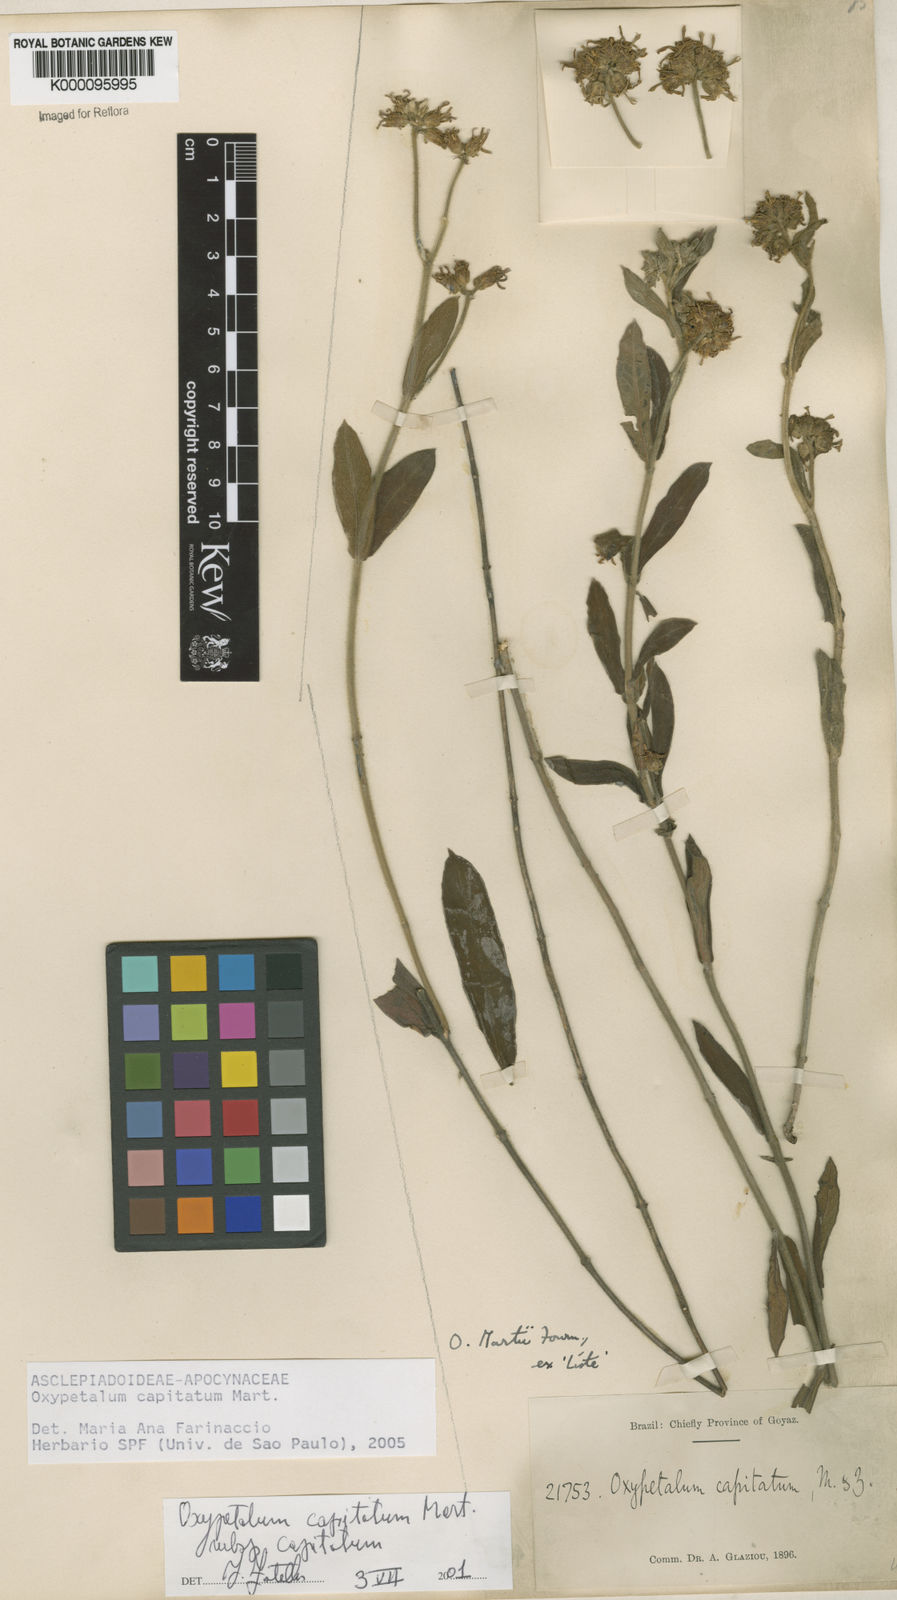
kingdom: Plantae
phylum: Tracheophyta
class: Magnoliopsida
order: Gentianales
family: Apocynaceae
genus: Oxypetalum
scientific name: Oxypetalum capitatum
